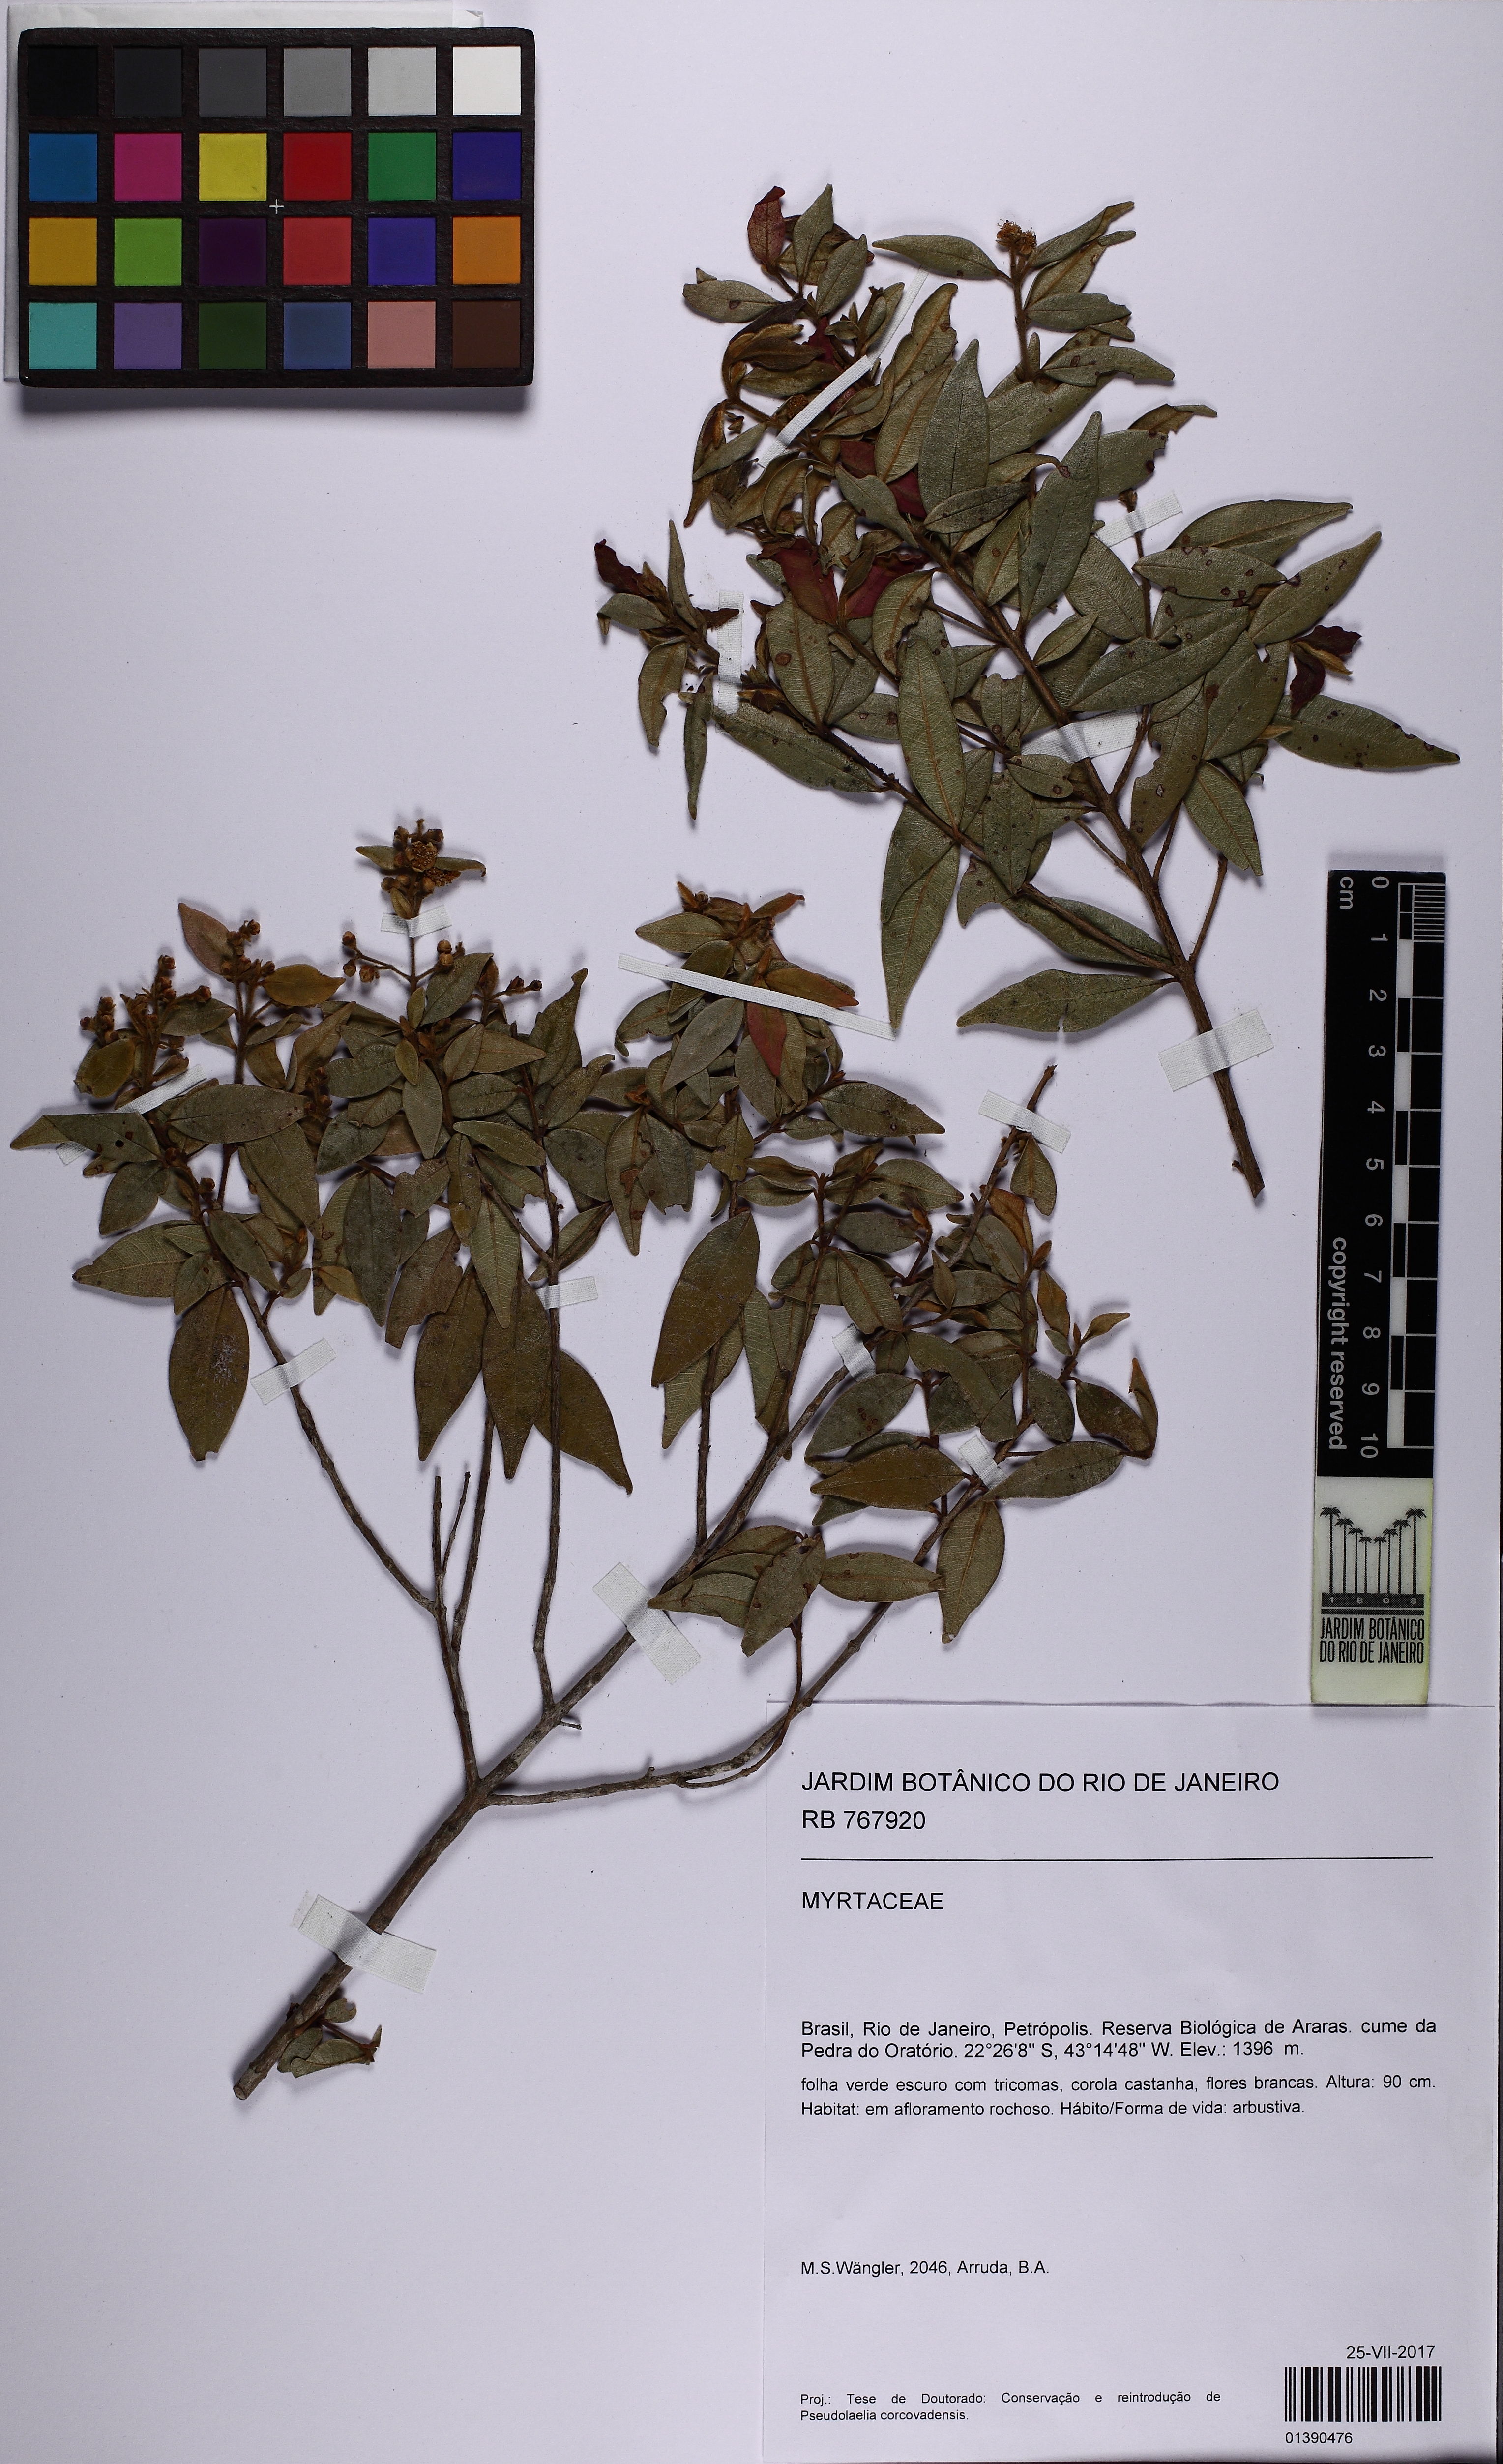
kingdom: Plantae
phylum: Tracheophyta
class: Magnoliopsida
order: Myrtales
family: Myrtaceae
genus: Myrcia
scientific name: Myrcia splendens
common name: Surinam cherry
